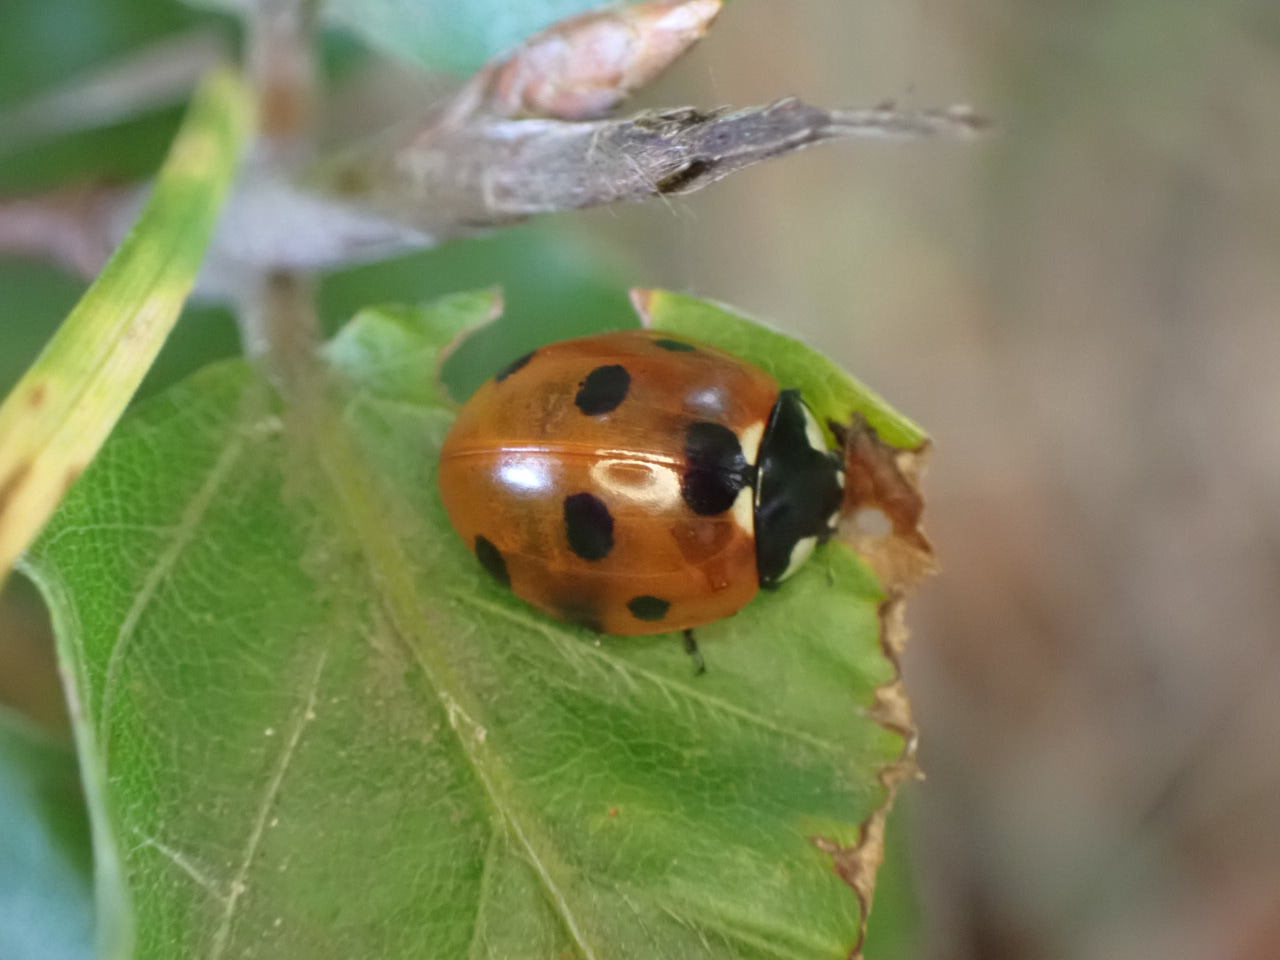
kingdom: Animalia
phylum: Arthropoda
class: Insecta
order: Coleoptera
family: Coccinellidae
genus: Coccinella
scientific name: Coccinella septempunctata
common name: Syvplettet mariehøne
